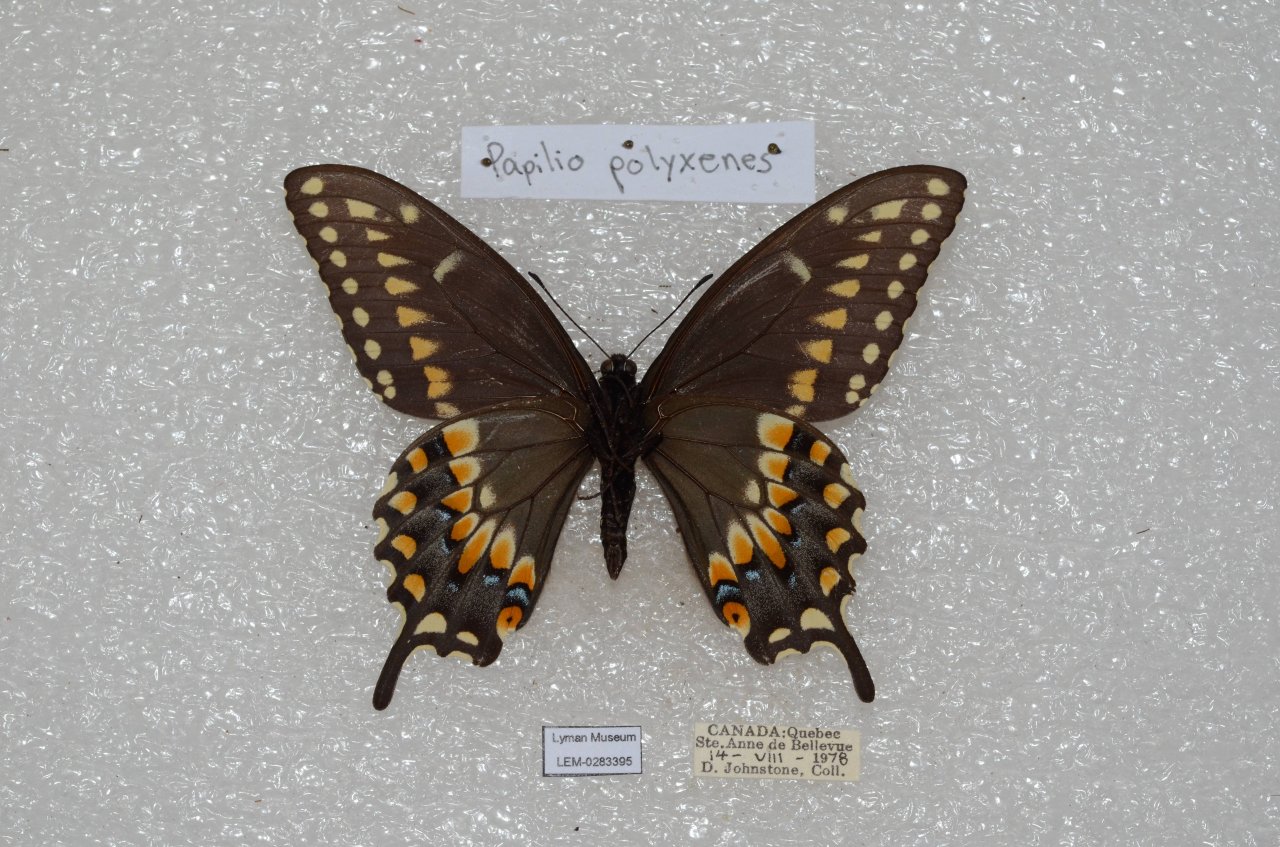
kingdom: Animalia
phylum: Arthropoda
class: Insecta
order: Lepidoptera
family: Papilionidae
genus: Papilio
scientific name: Papilio polyxenes
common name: Black Swallowtail
